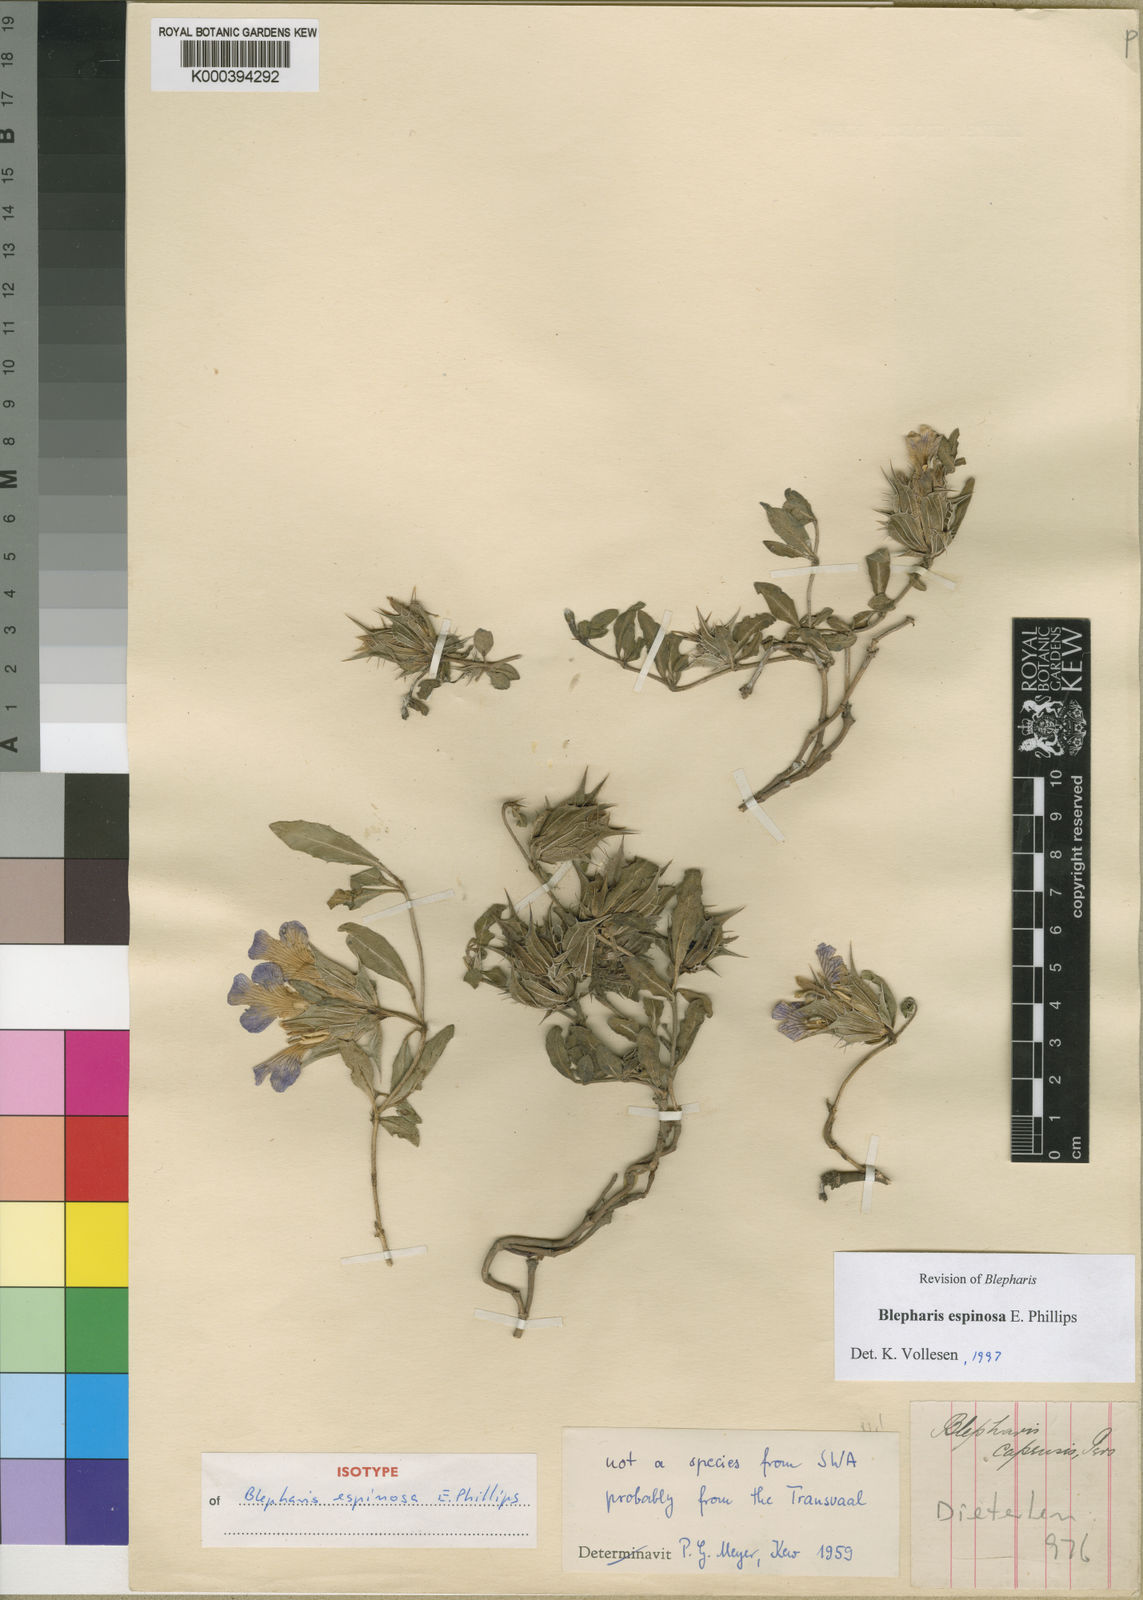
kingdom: Plantae
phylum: Tracheophyta
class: Magnoliopsida
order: Lamiales
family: Acanthaceae
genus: Blepharis
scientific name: Blepharis espinosa
